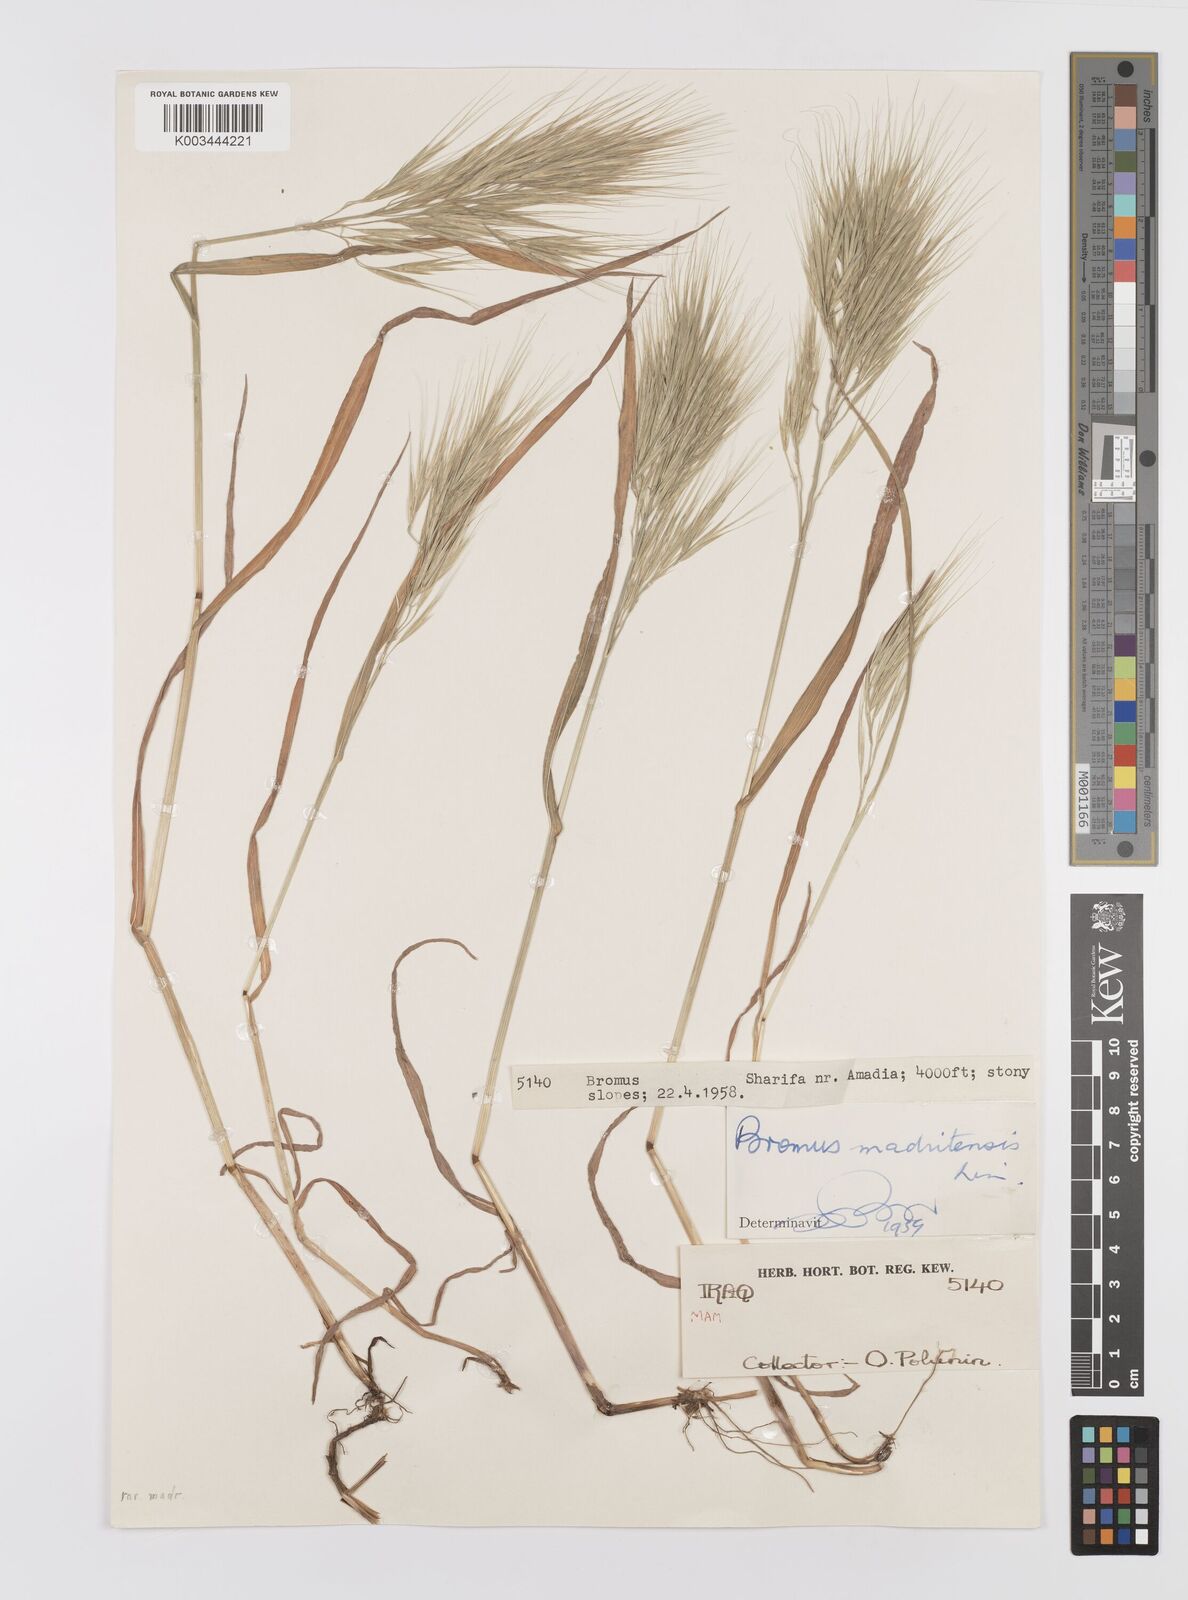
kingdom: Plantae
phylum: Tracheophyta
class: Liliopsida
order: Poales
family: Poaceae
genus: Bromus
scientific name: Bromus madritensis
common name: Compact brome
